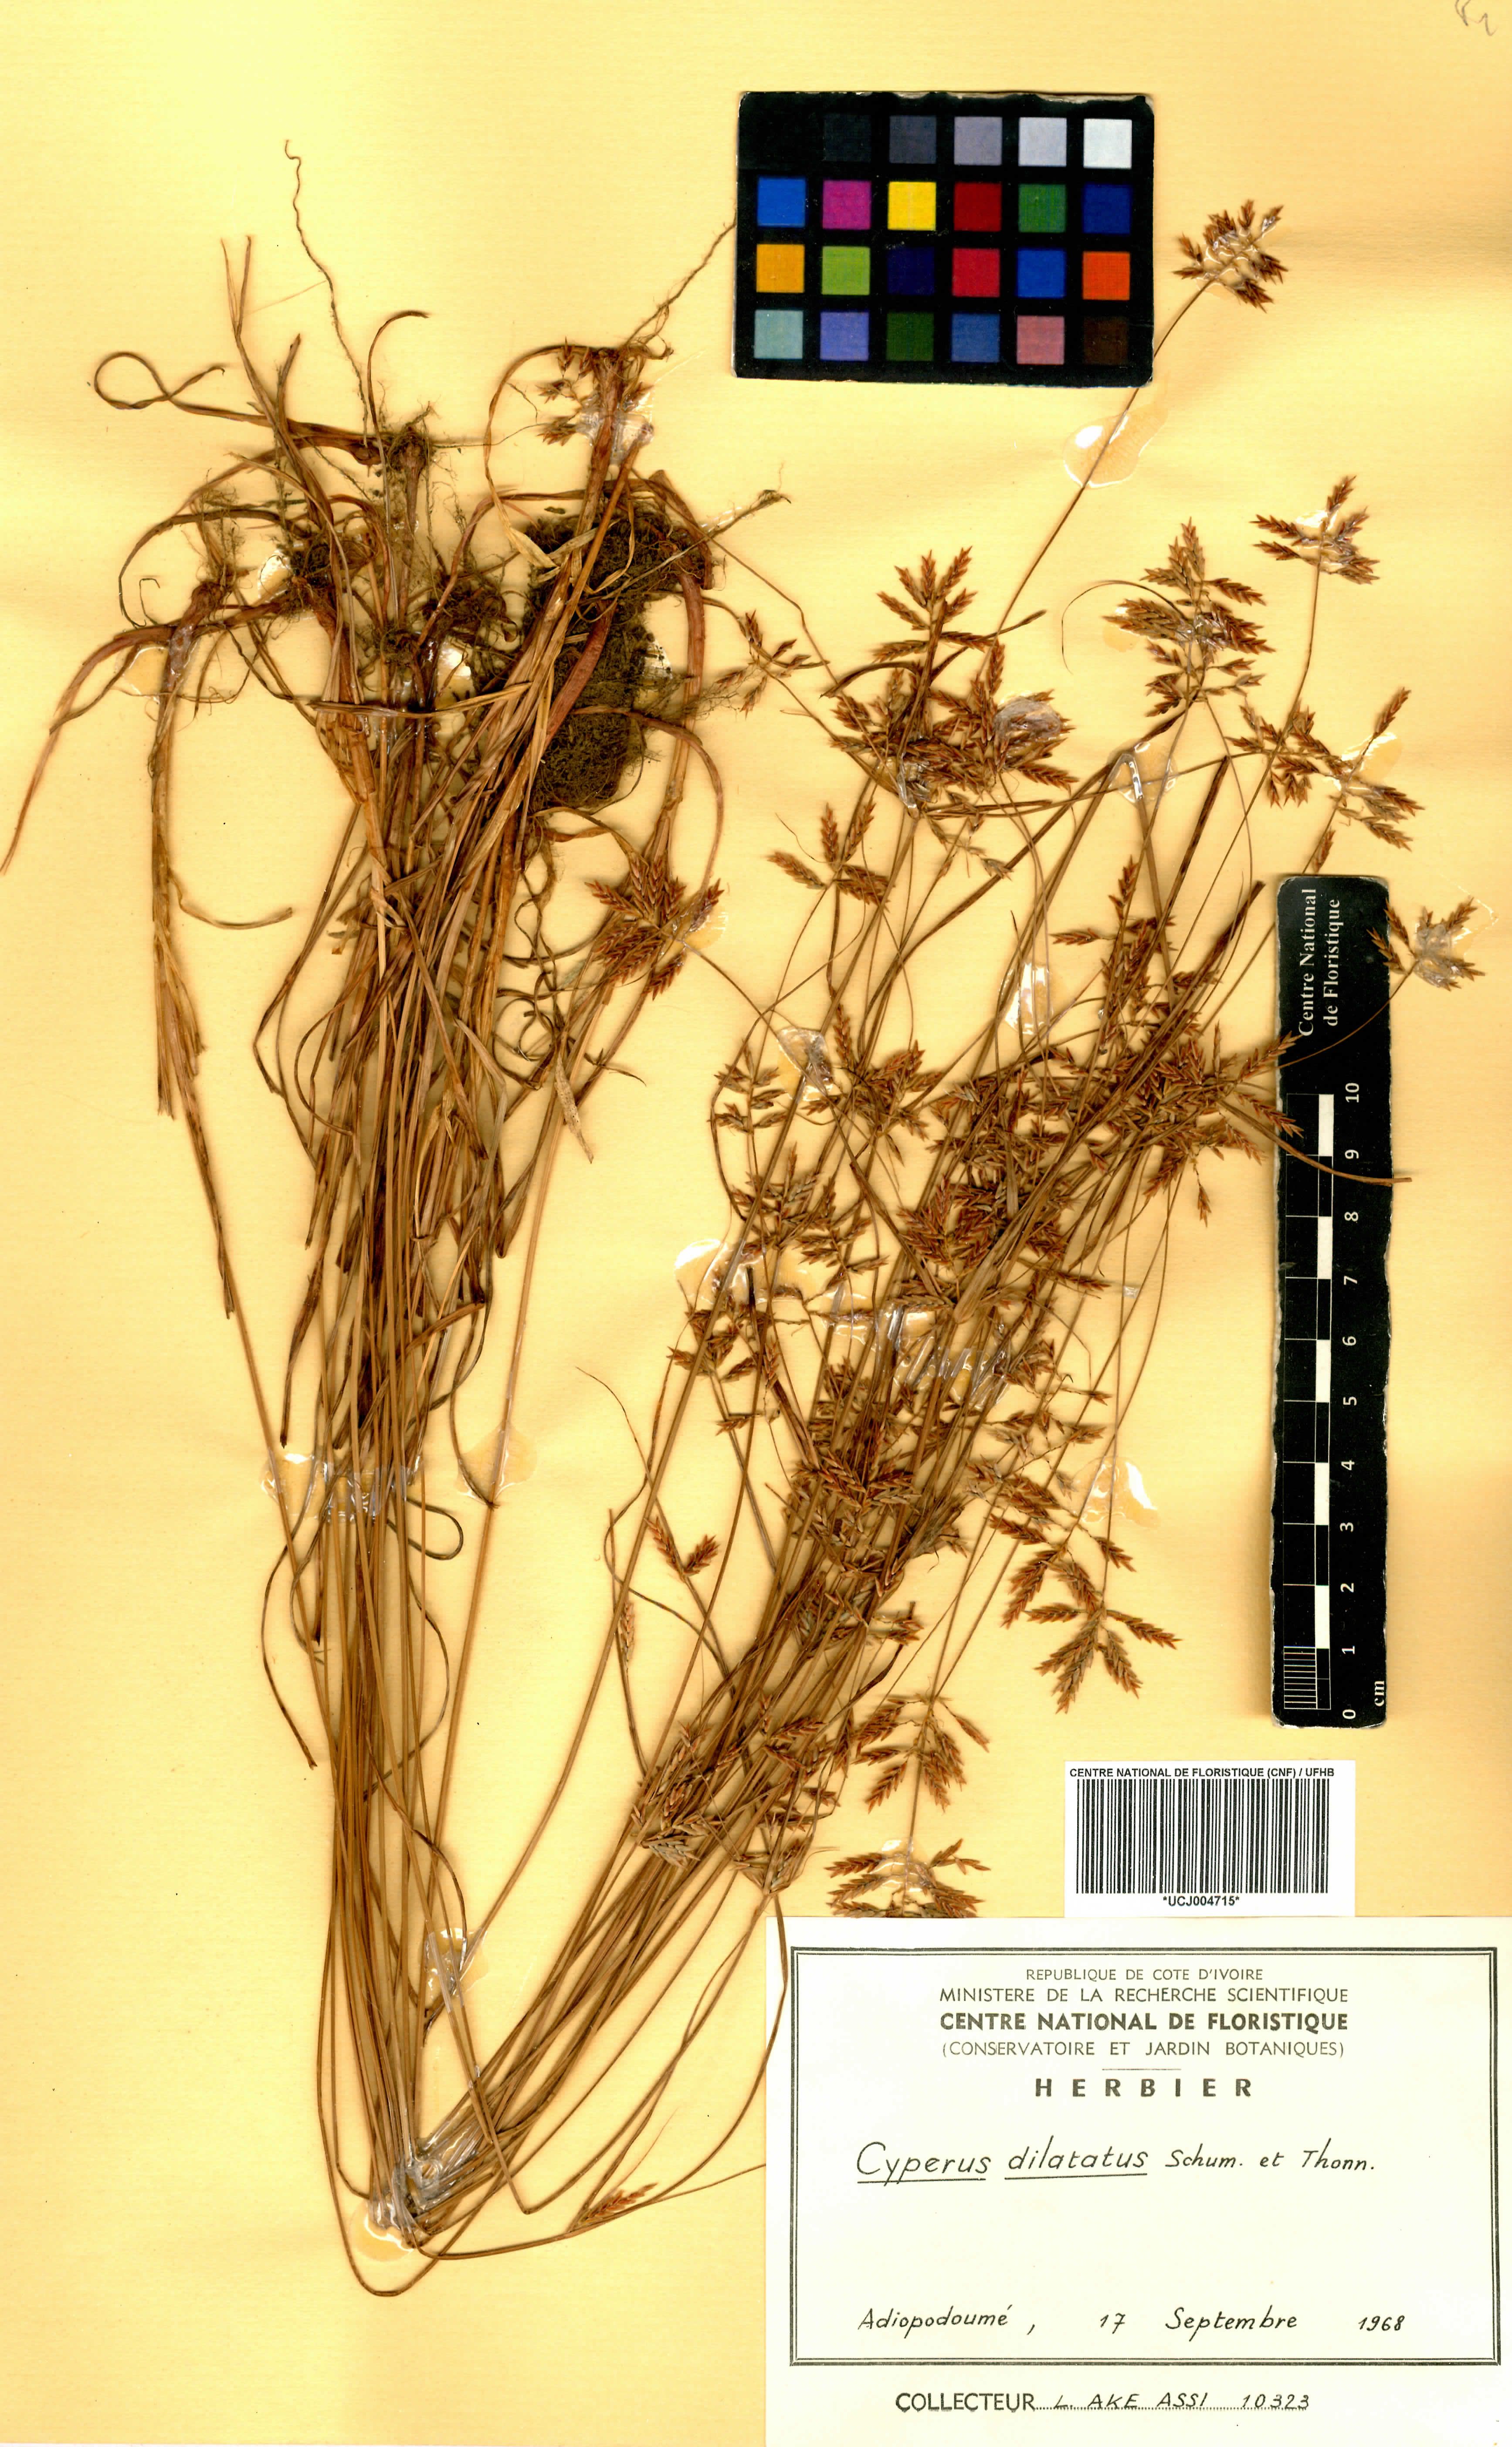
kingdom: Plantae
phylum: Tracheophyta
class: Liliopsida
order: Poales
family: Cyperaceae
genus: Cyperus
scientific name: Cyperus dilatatus
